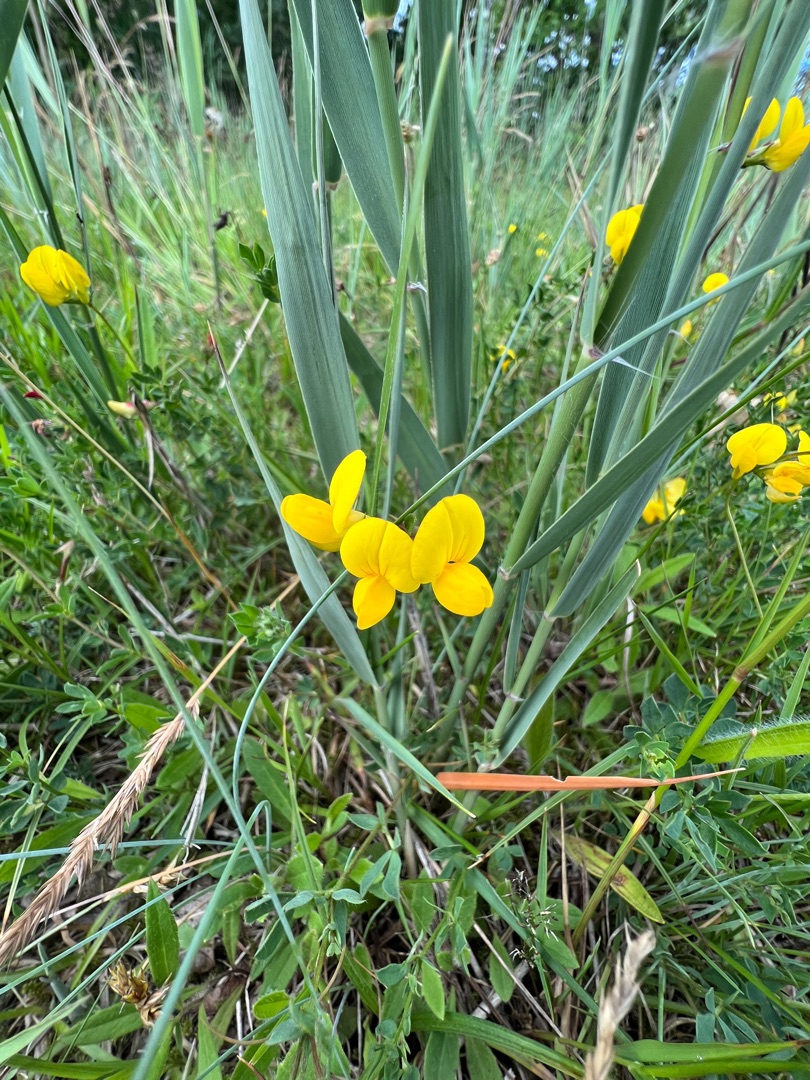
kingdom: Plantae
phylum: Tracheophyta
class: Magnoliopsida
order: Fabales
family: Fabaceae
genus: Lotus
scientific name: Lotus corniculatus
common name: Almindelig kællingetand
